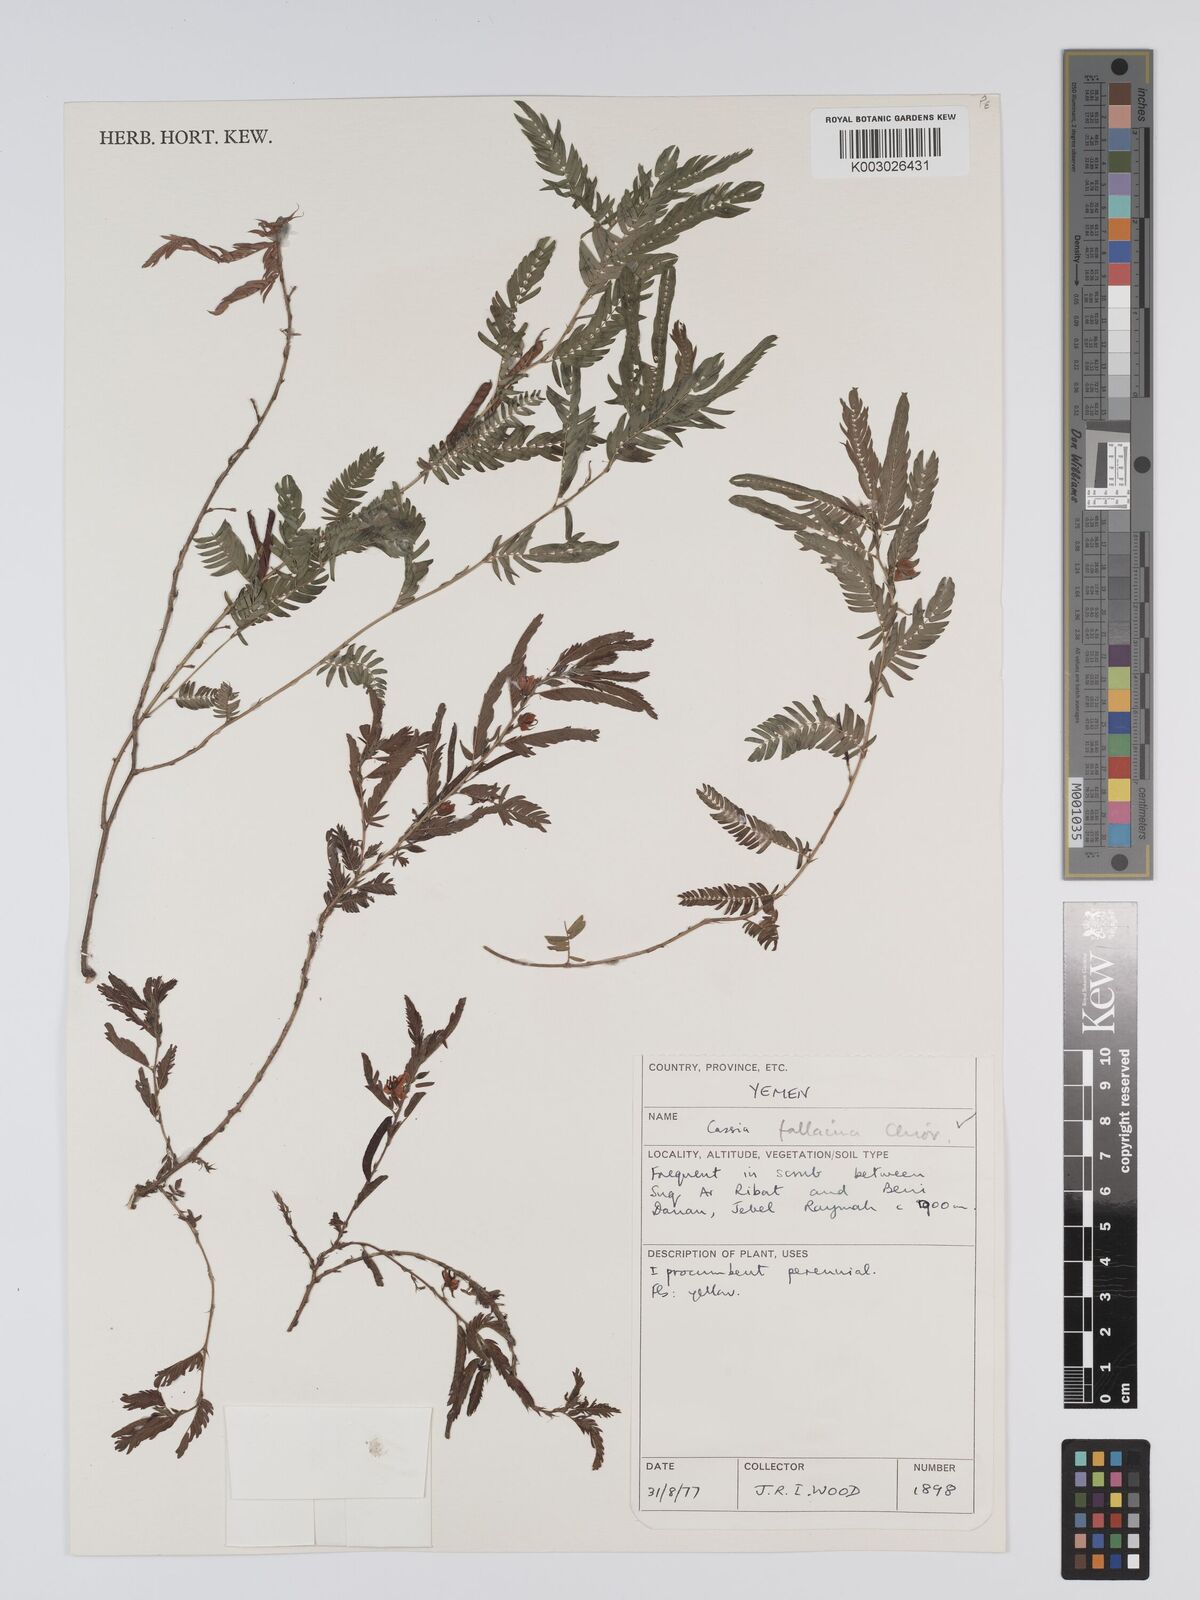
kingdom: Plantae
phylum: Tracheophyta
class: Magnoliopsida
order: Fabales
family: Fabaceae
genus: Chamaecrista
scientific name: Chamaecrista fallacina
